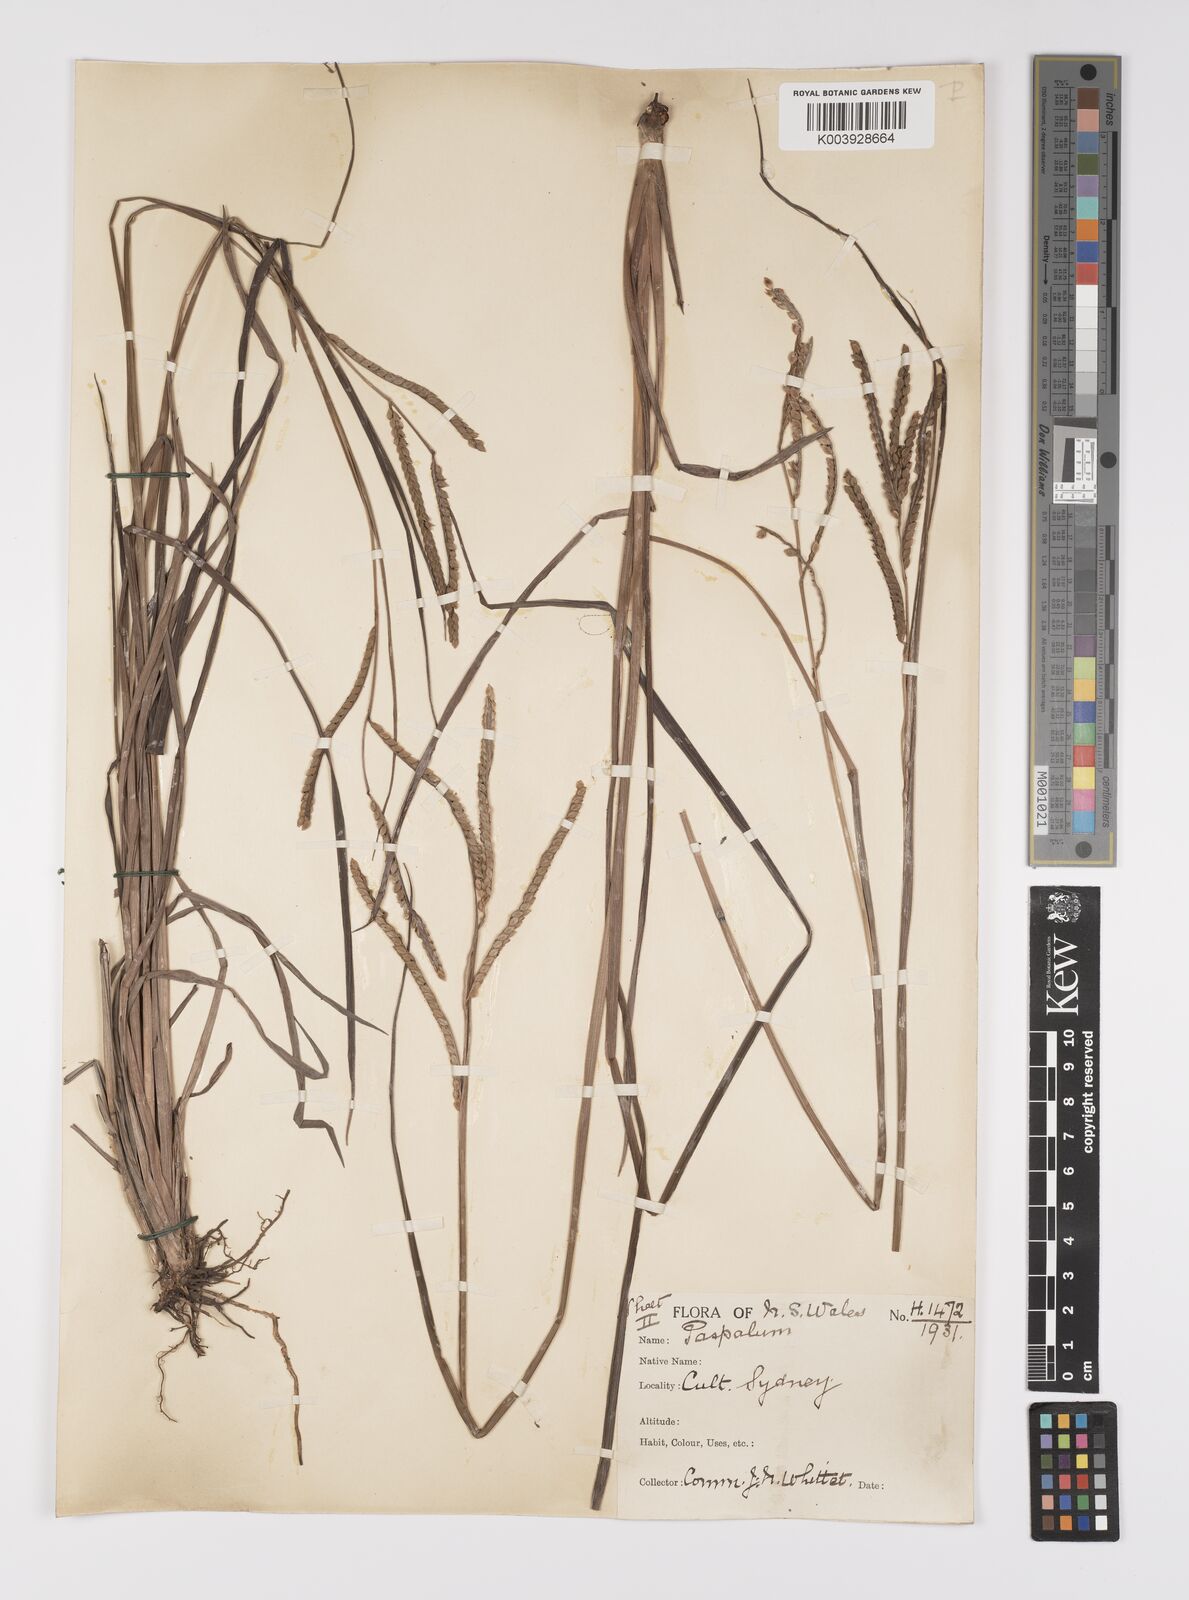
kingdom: Plantae
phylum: Tracheophyta
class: Liliopsida
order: Poales
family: Poaceae
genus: Paspalum
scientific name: Paspalum scrobiculatum
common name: Kodo millet
